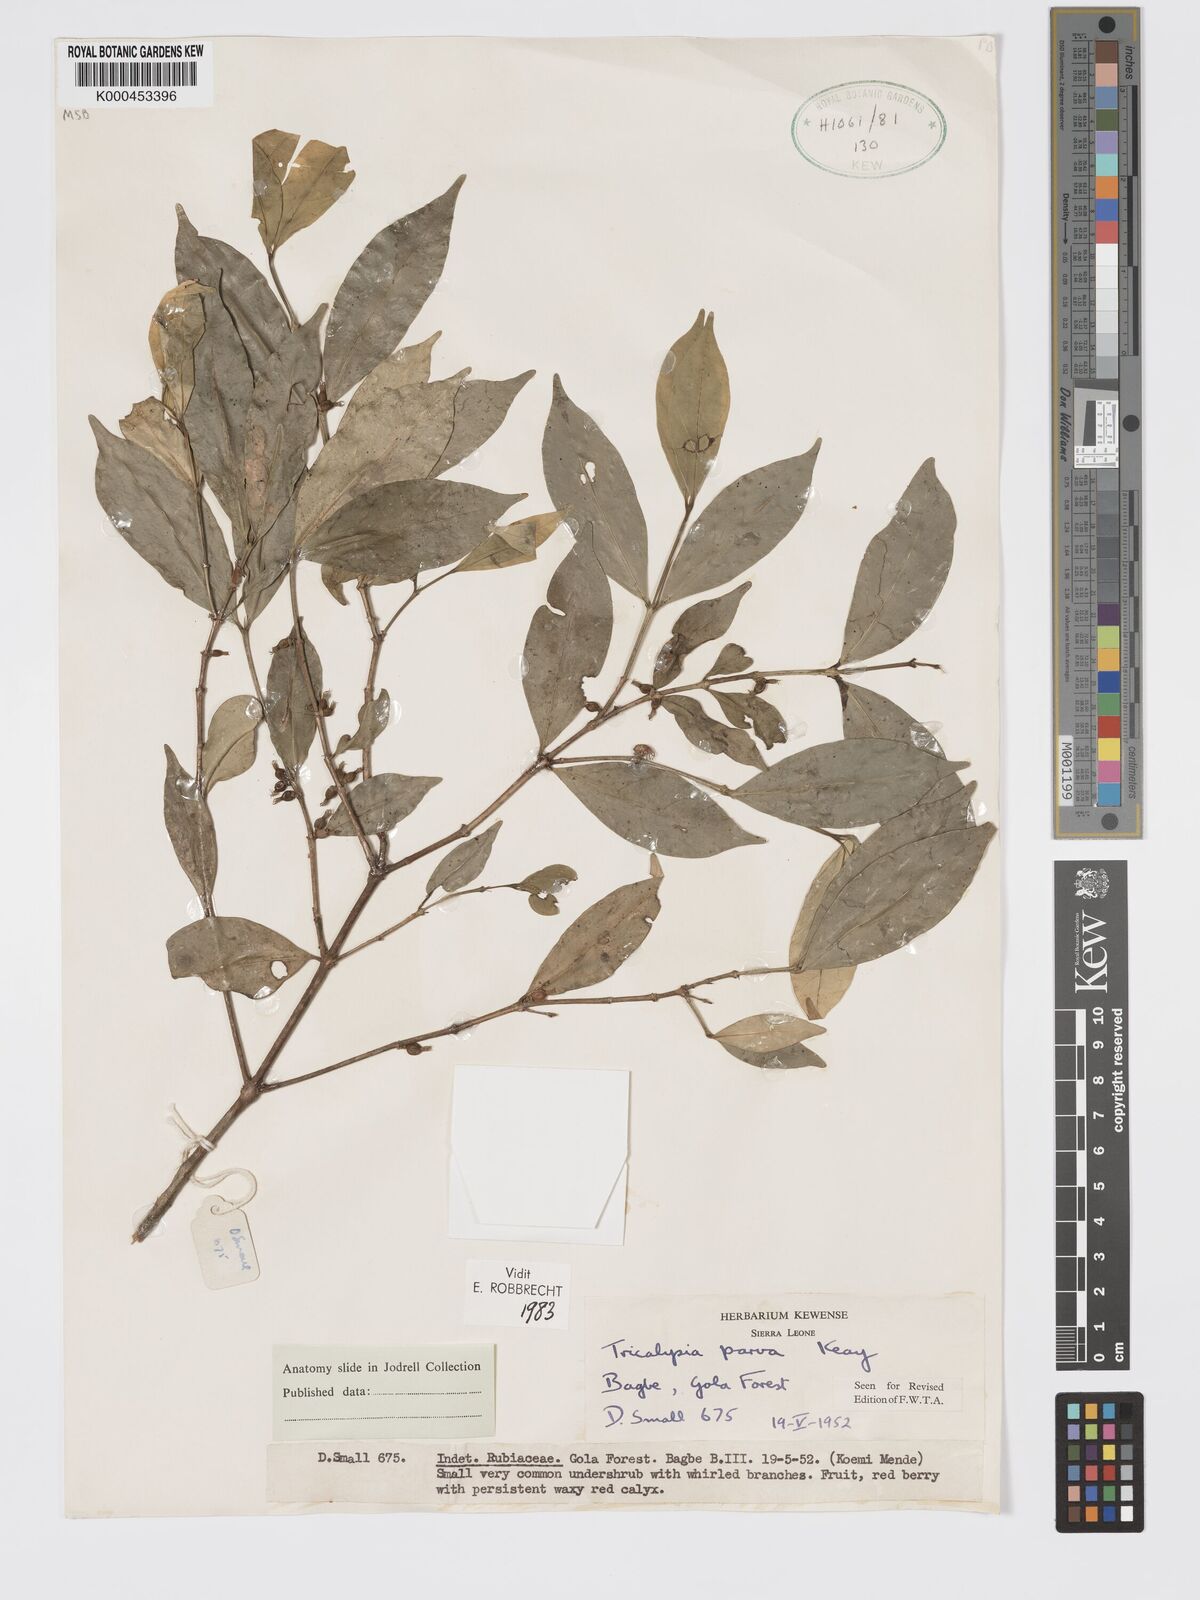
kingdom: Plantae
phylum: Tracheophyta
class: Magnoliopsida
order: Gentianales
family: Rubiaceae
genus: Tricalysia
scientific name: Tricalysia parva
